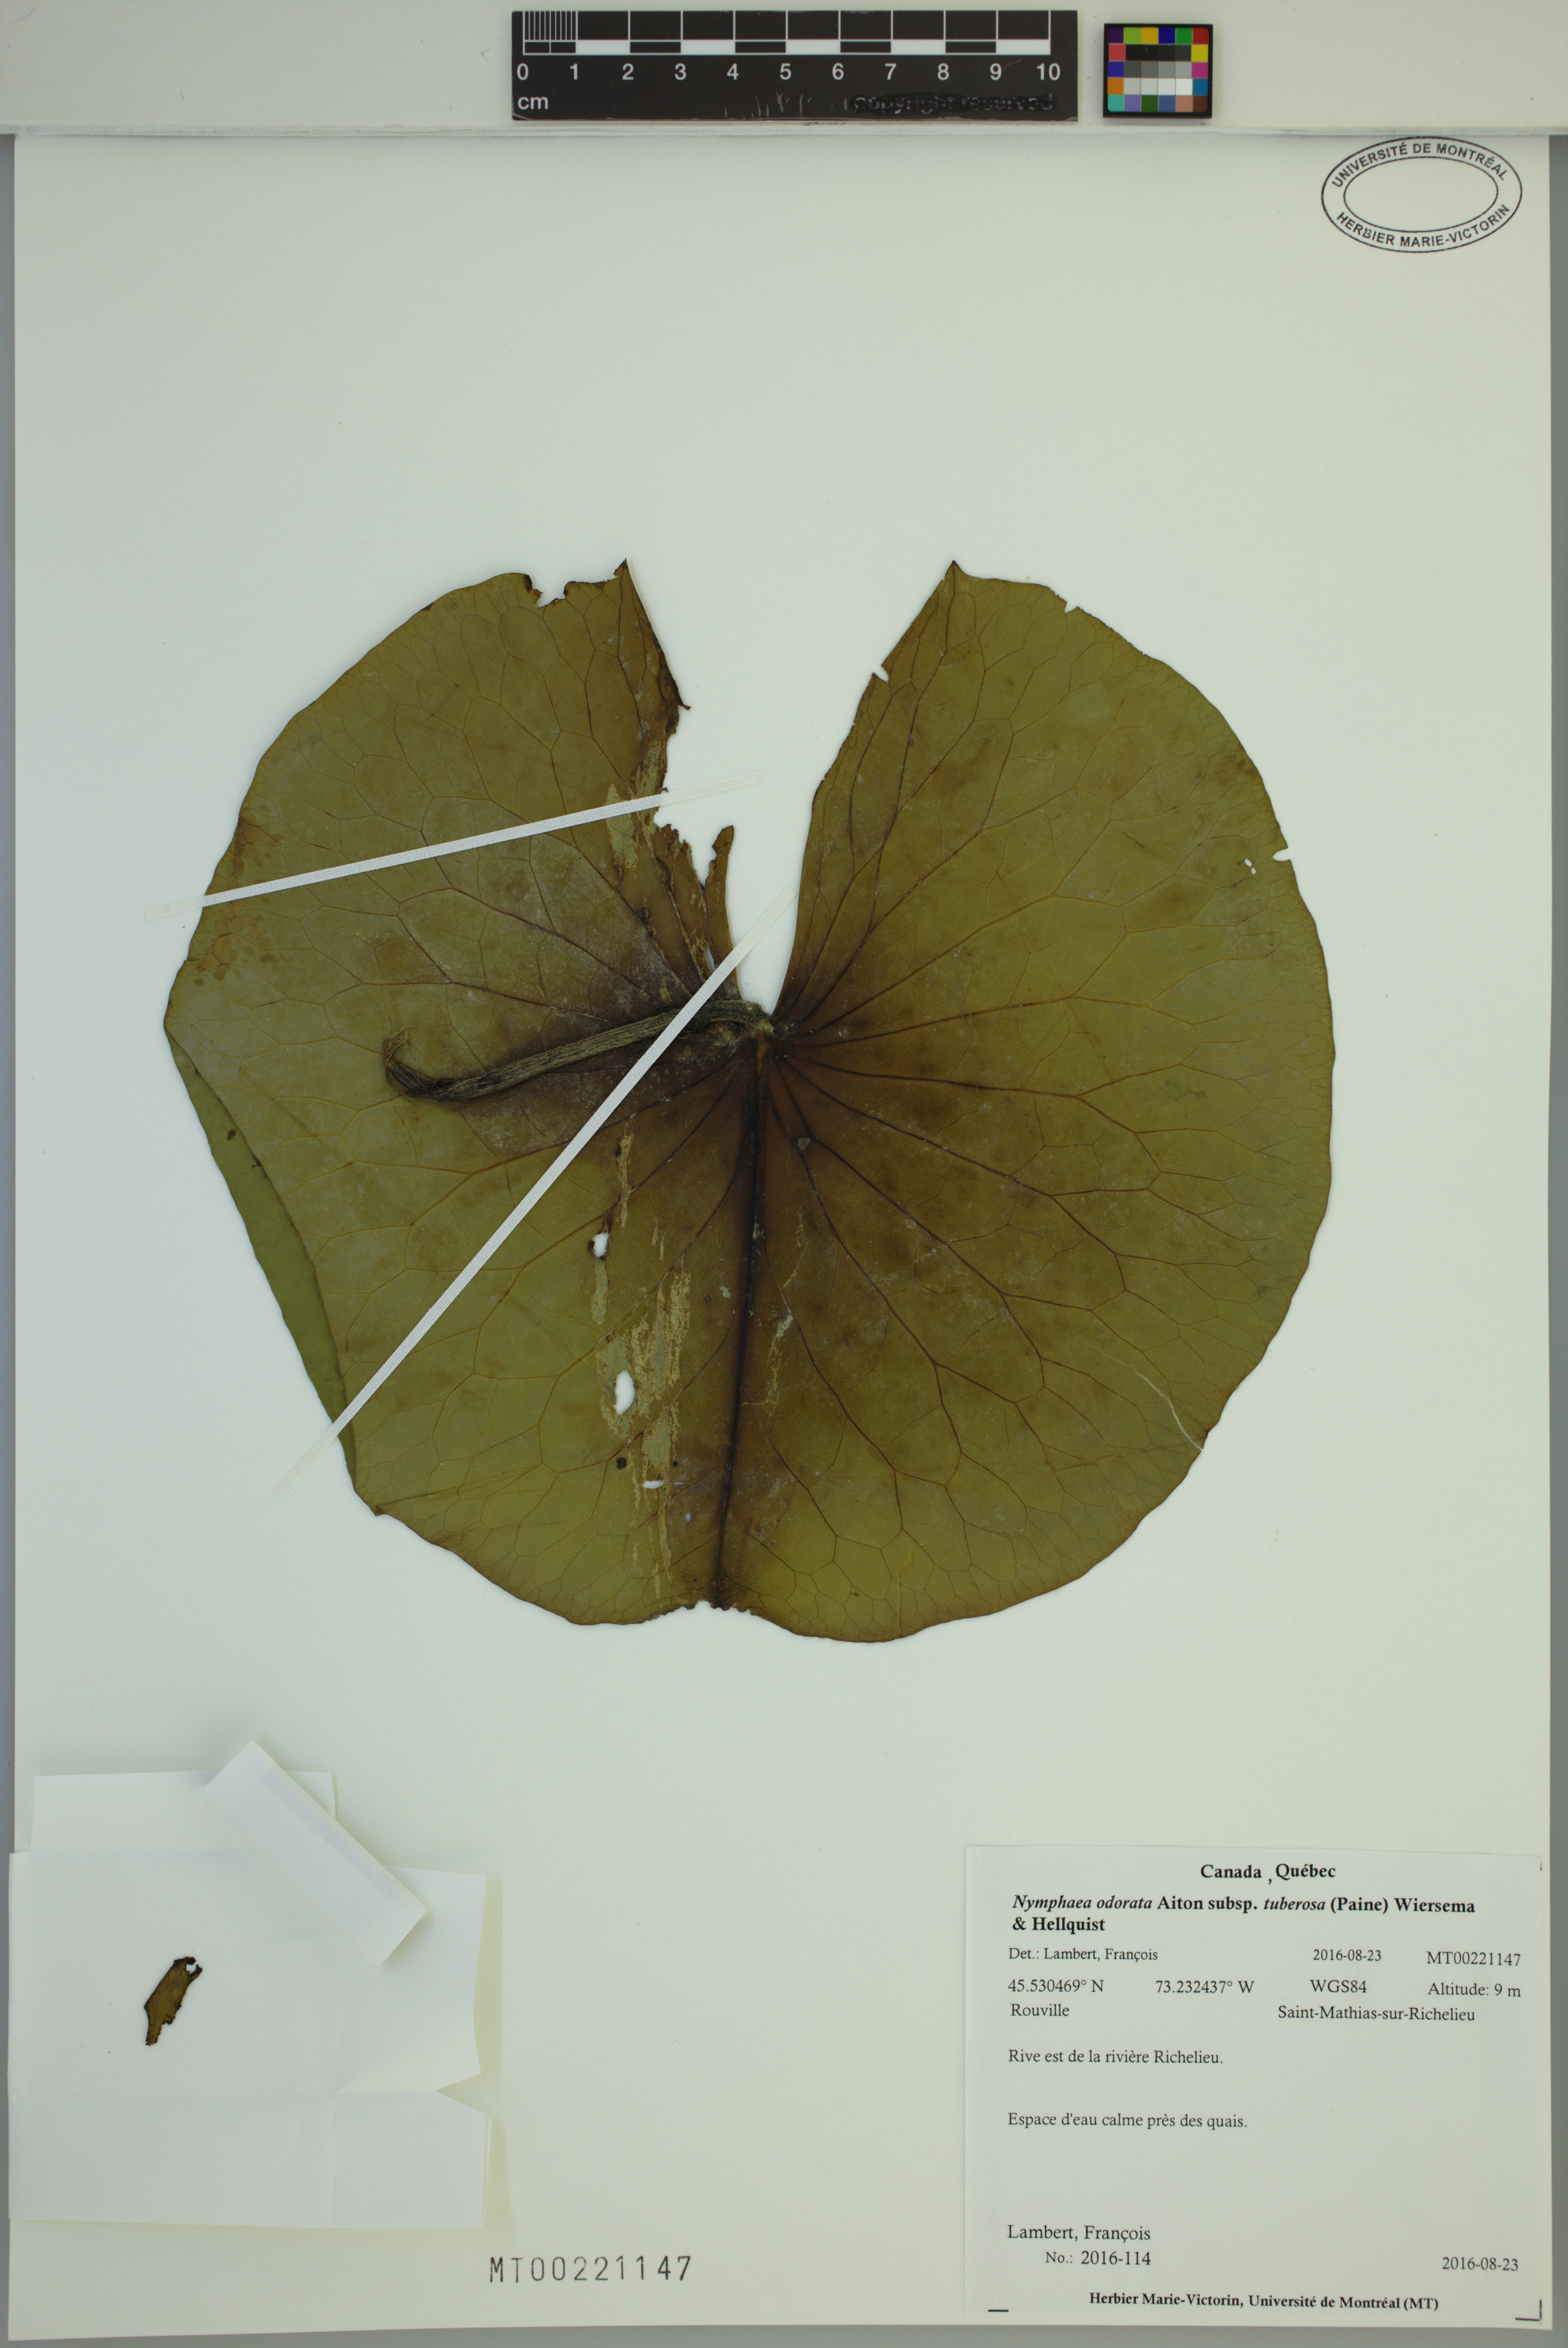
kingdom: Plantae
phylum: Tracheophyta
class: Magnoliopsida
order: Nymphaeales
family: Nymphaeaceae
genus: Nymphaea
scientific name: Nymphaea odorata
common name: Fragrant water-lily
